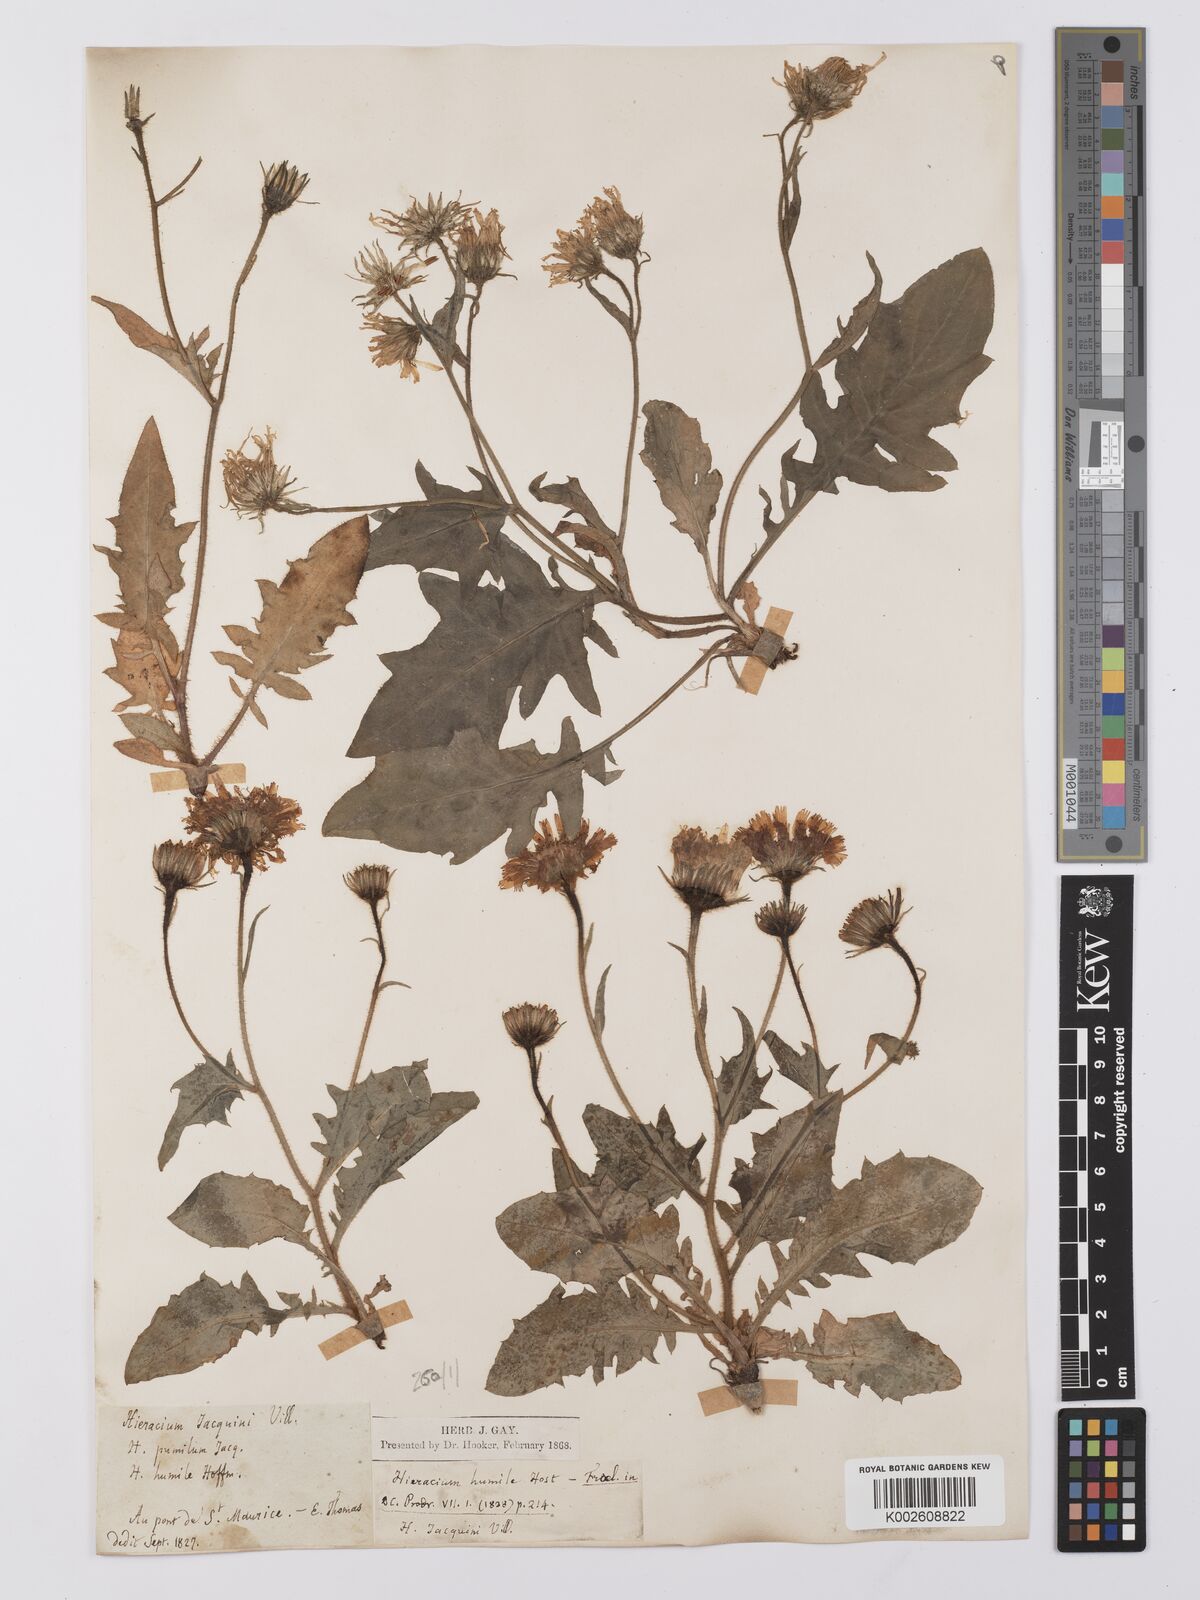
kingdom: Plantae
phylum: Tracheophyta
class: Magnoliopsida
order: Asterales
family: Asteraceae
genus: Hieracium
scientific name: Hieracium
